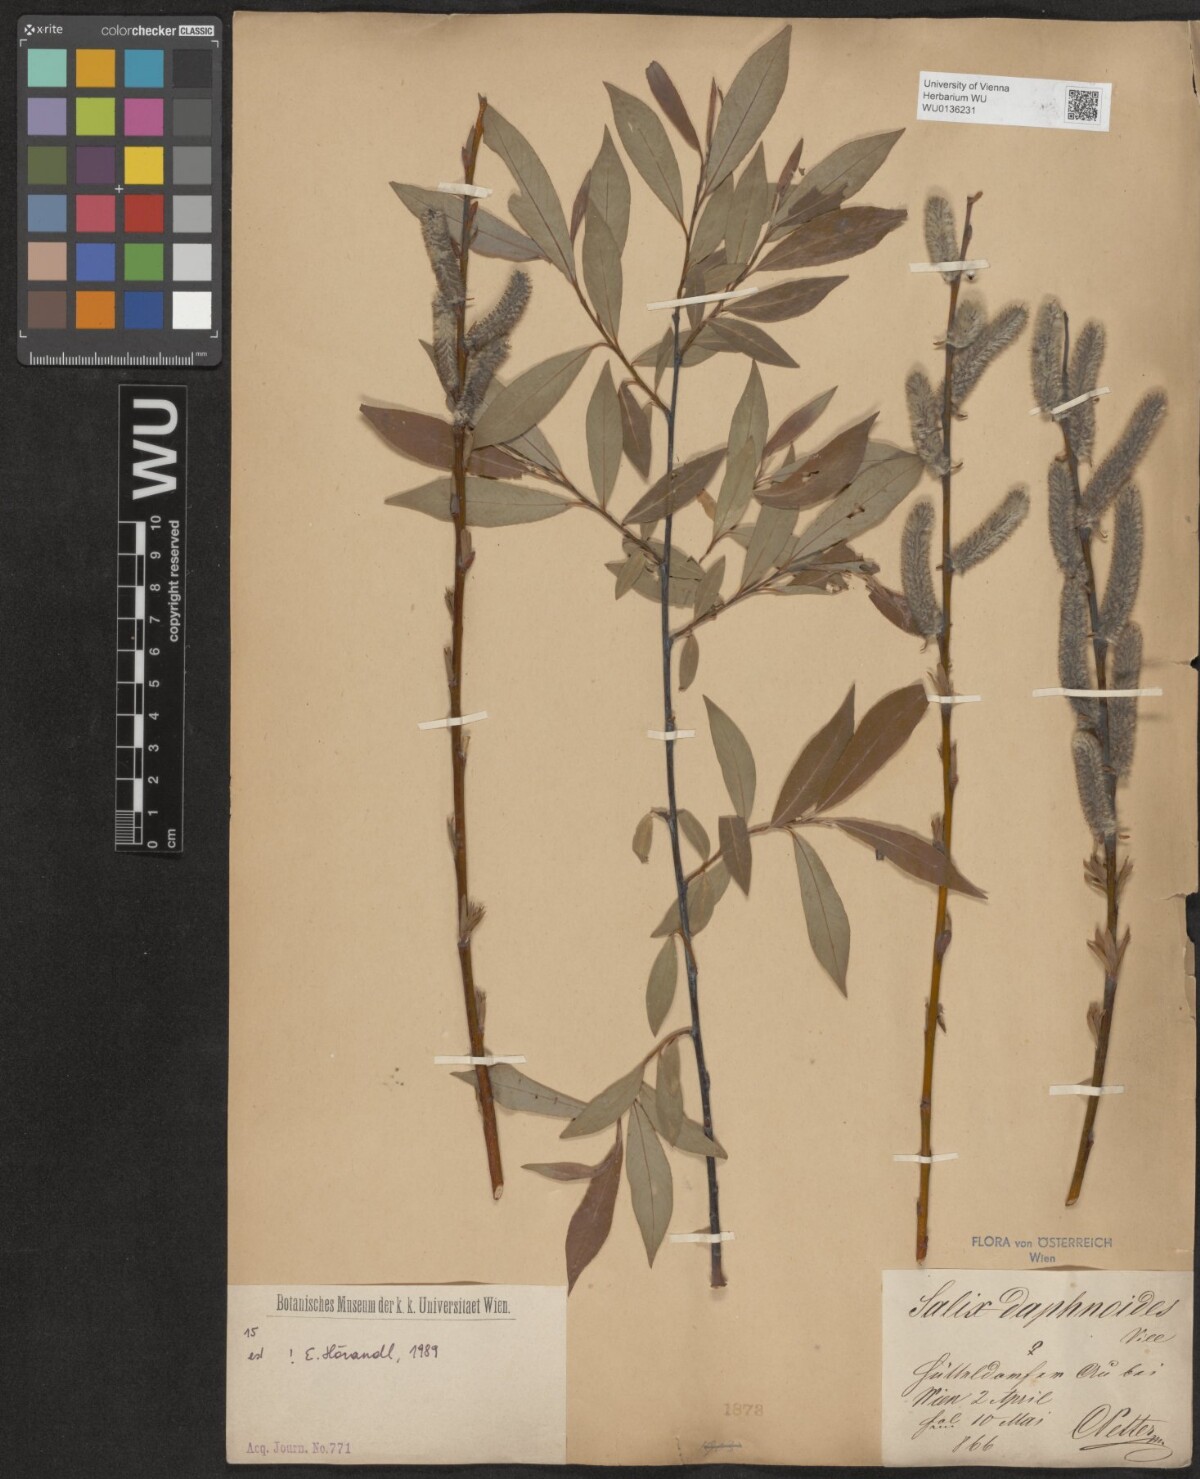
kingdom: Plantae
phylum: Tracheophyta
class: Magnoliopsida
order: Malpighiales
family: Salicaceae
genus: Salix
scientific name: Salix daphnoides
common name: European violet-willow
